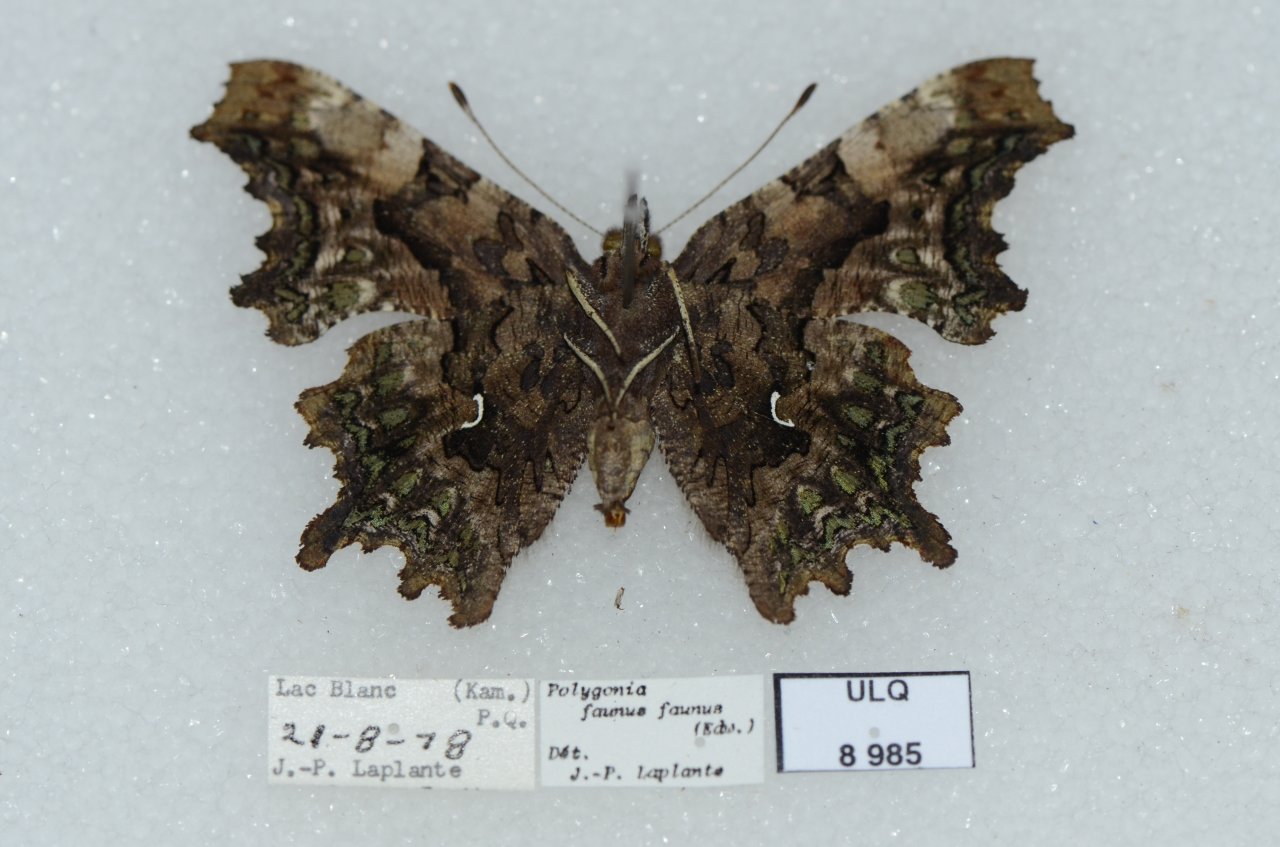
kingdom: Animalia
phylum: Arthropoda
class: Insecta
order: Lepidoptera
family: Nymphalidae
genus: Polygonia
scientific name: Polygonia faunus
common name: Green Comma
